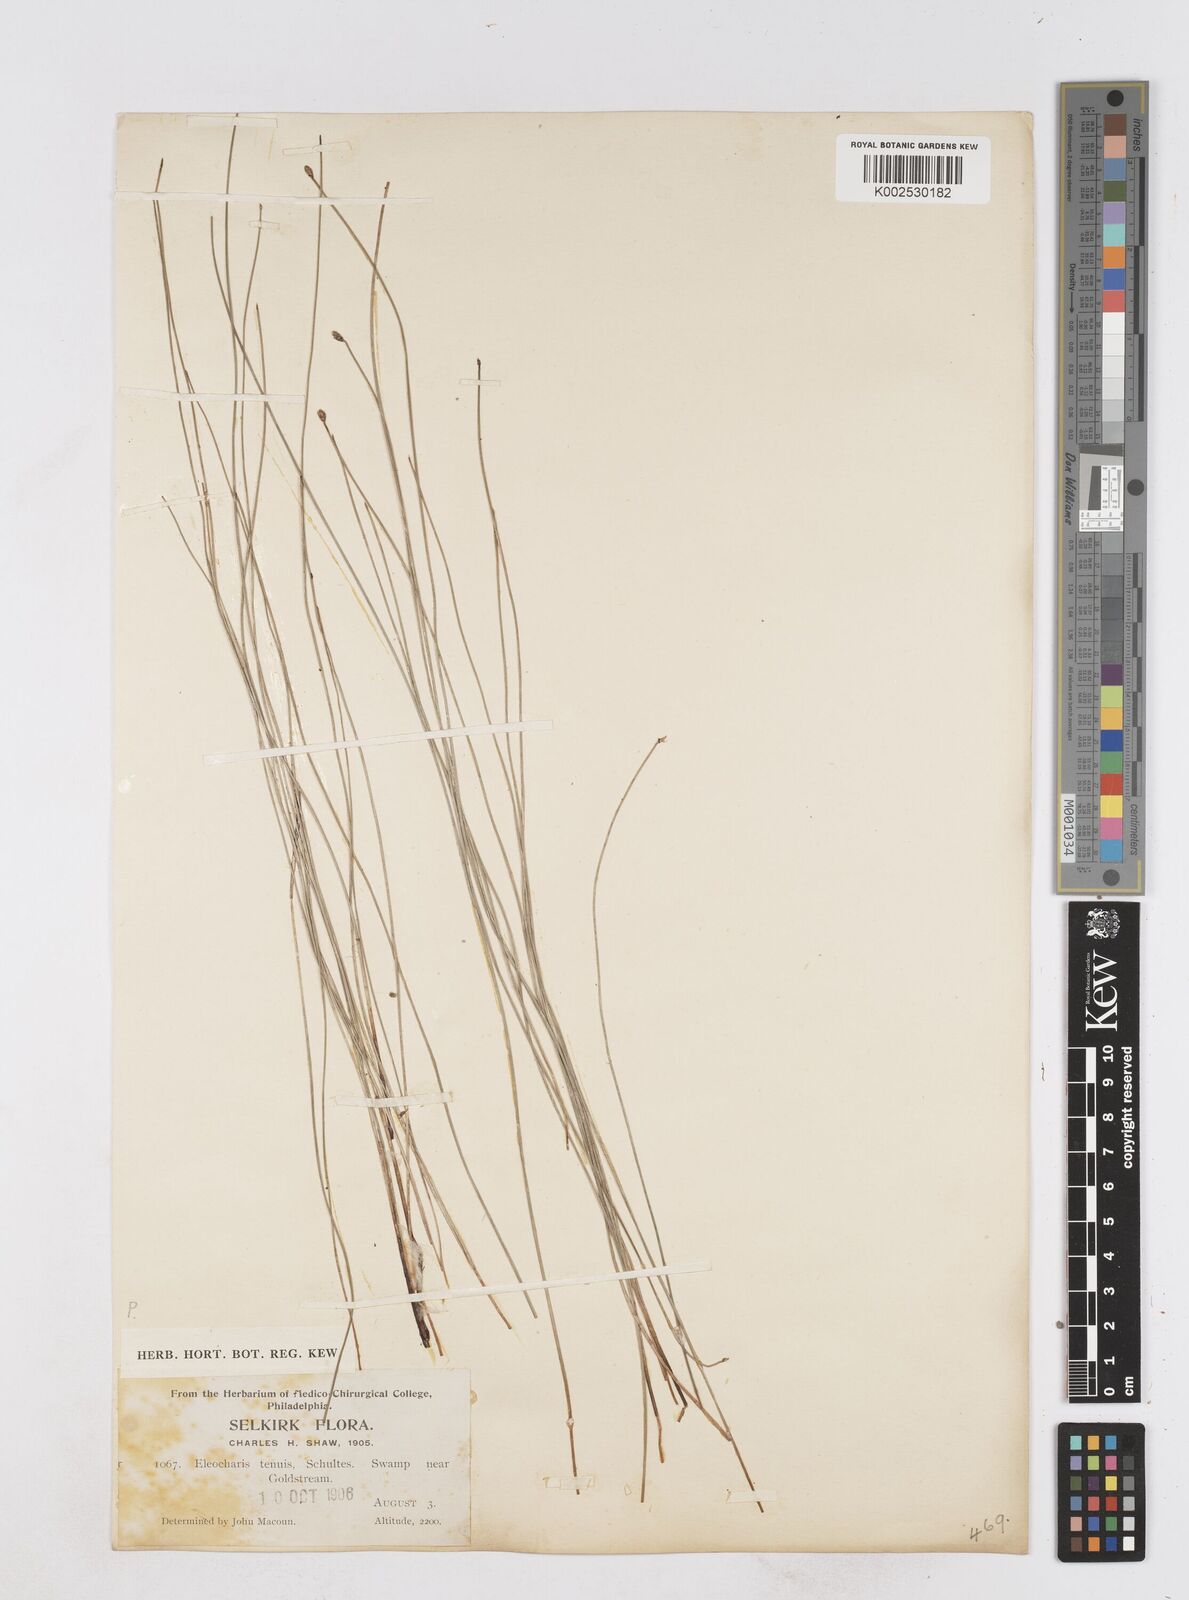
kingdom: Plantae
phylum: Tracheophyta
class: Liliopsida
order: Poales
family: Cyperaceae
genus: Eleocharis
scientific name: Eleocharis tenuis
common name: Dog's hair
